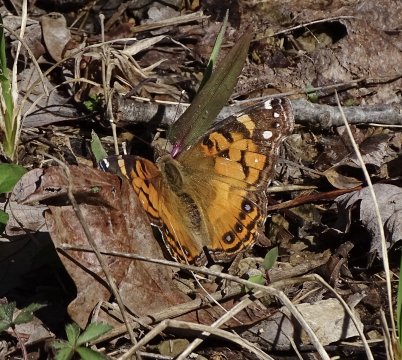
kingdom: Animalia
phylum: Arthropoda
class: Insecta
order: Lepidoptera
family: Nymphalidae
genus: Vanessa
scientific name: Vanessa virginiensis
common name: American Lady
